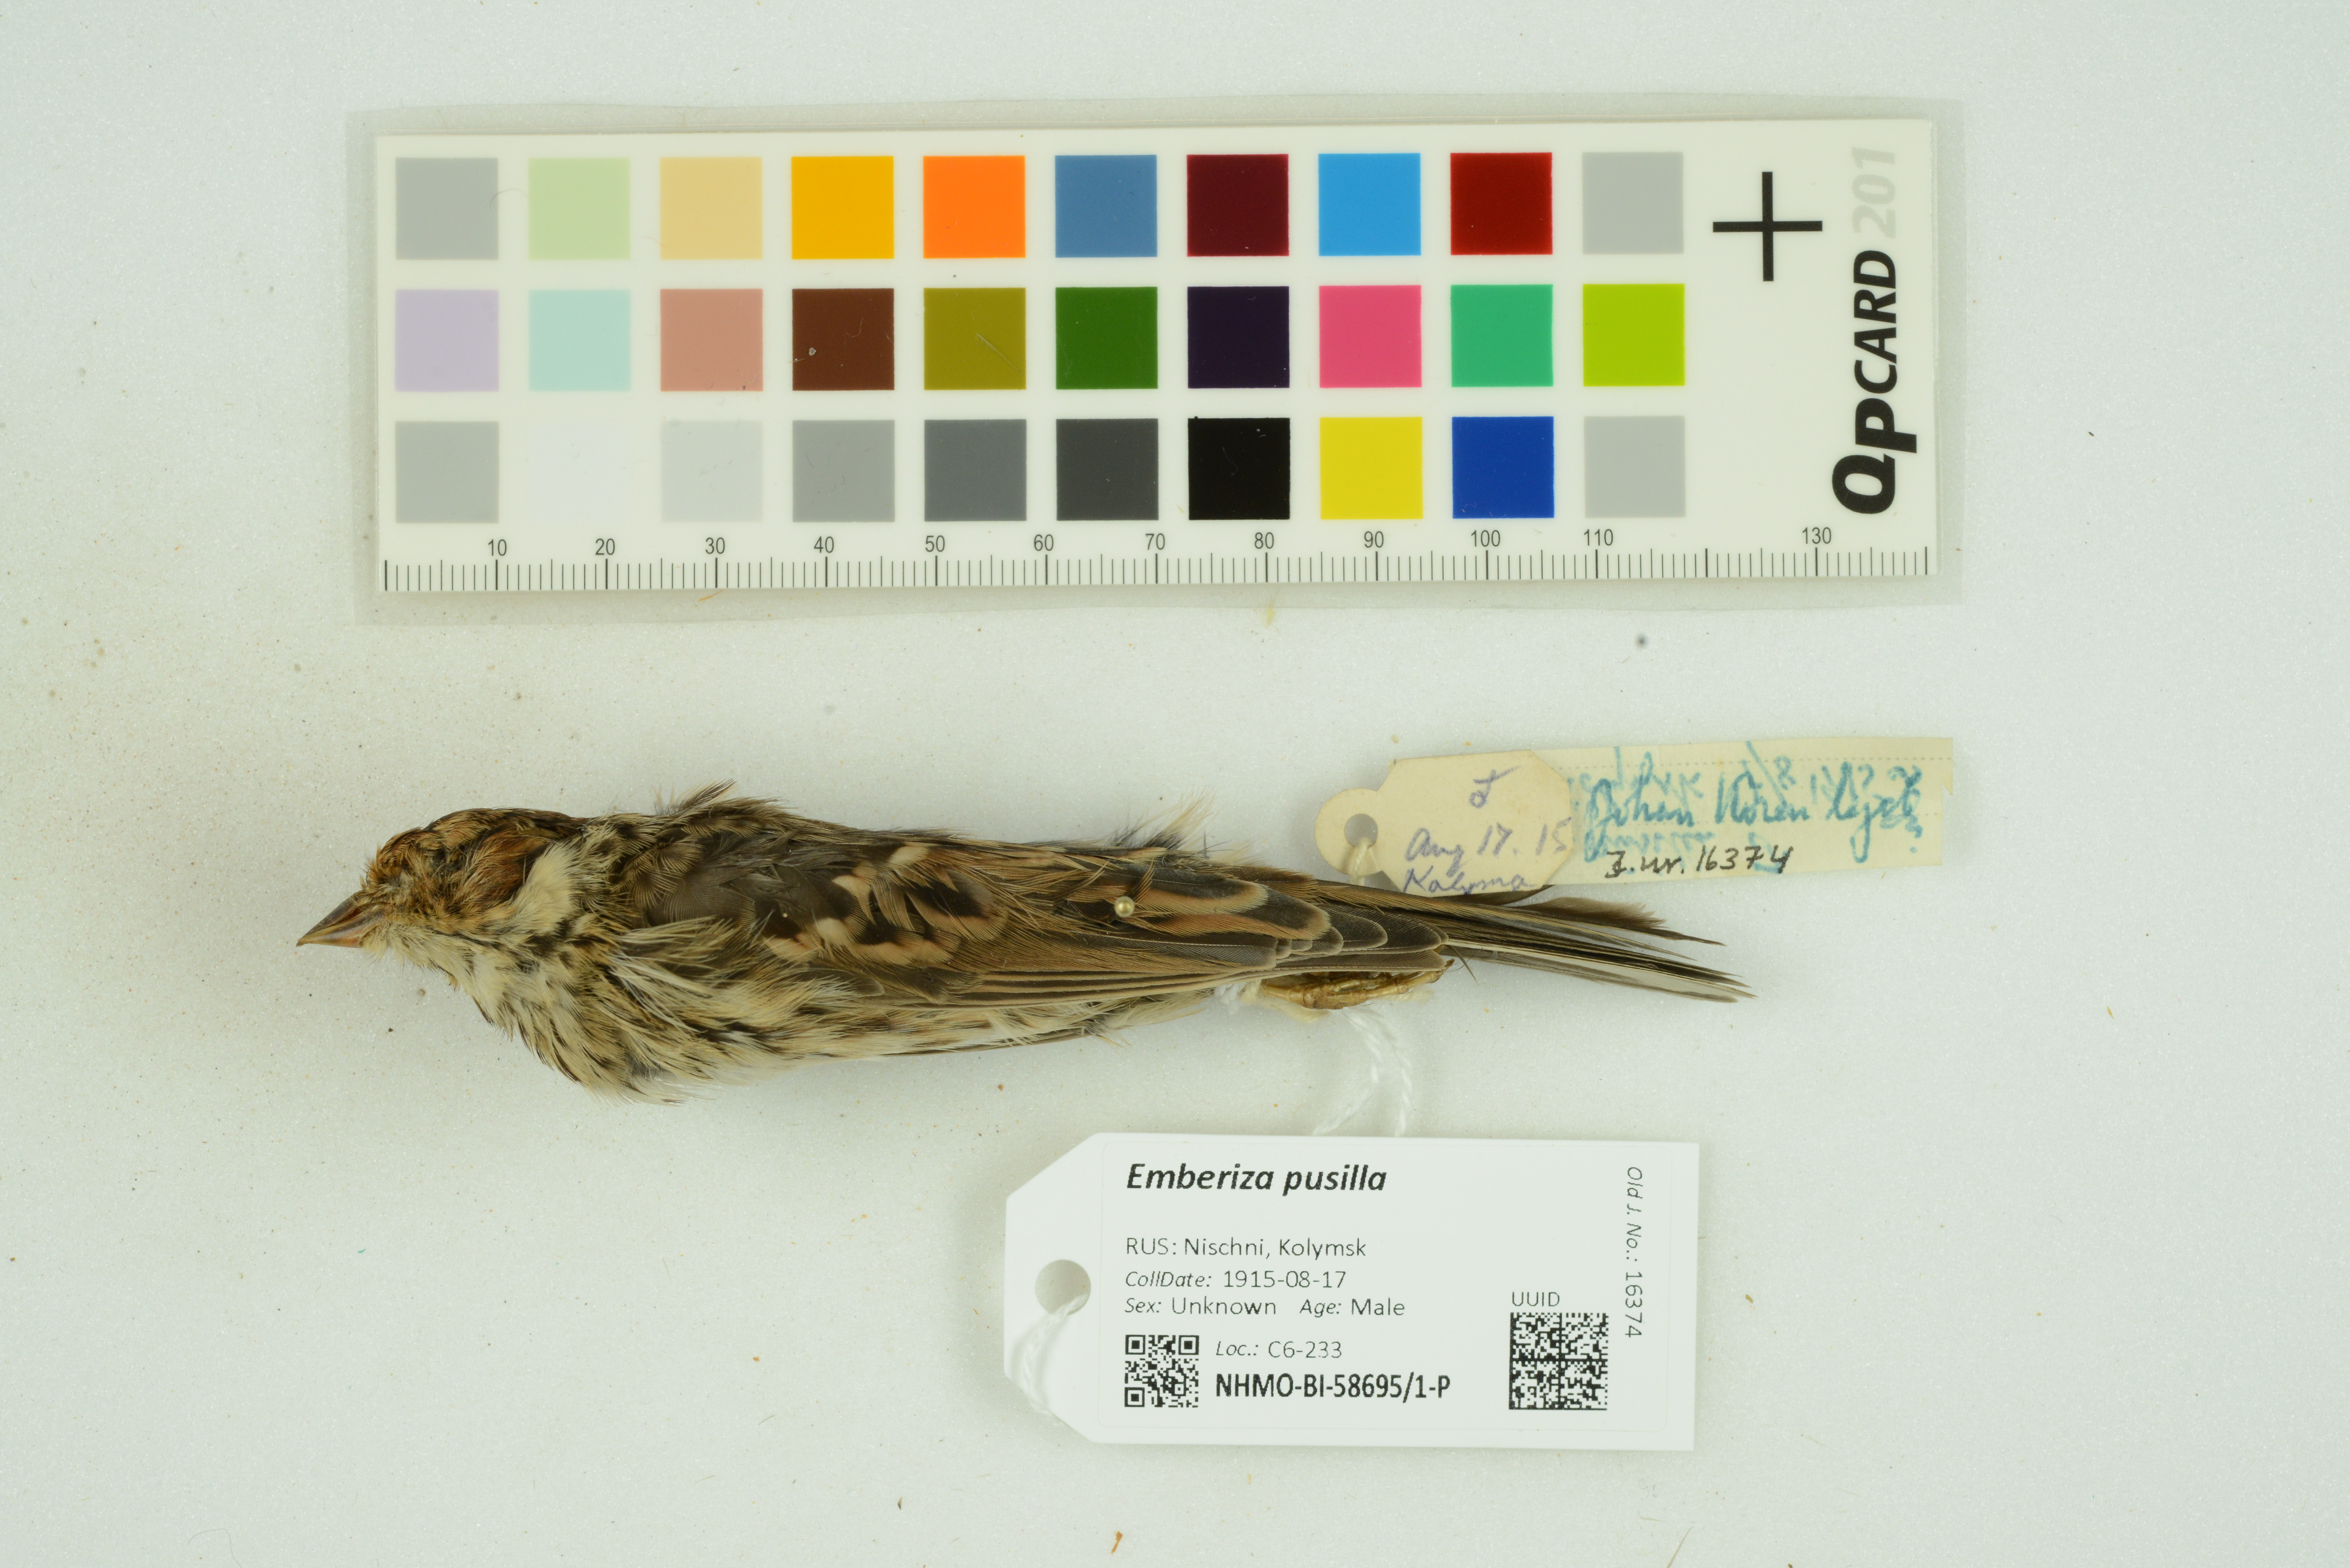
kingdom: Animalia
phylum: Chordata
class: Aves
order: Passeriformes
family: Emberizidae
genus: Emberiza
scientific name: Emberiza pusilla
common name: Little bunting
